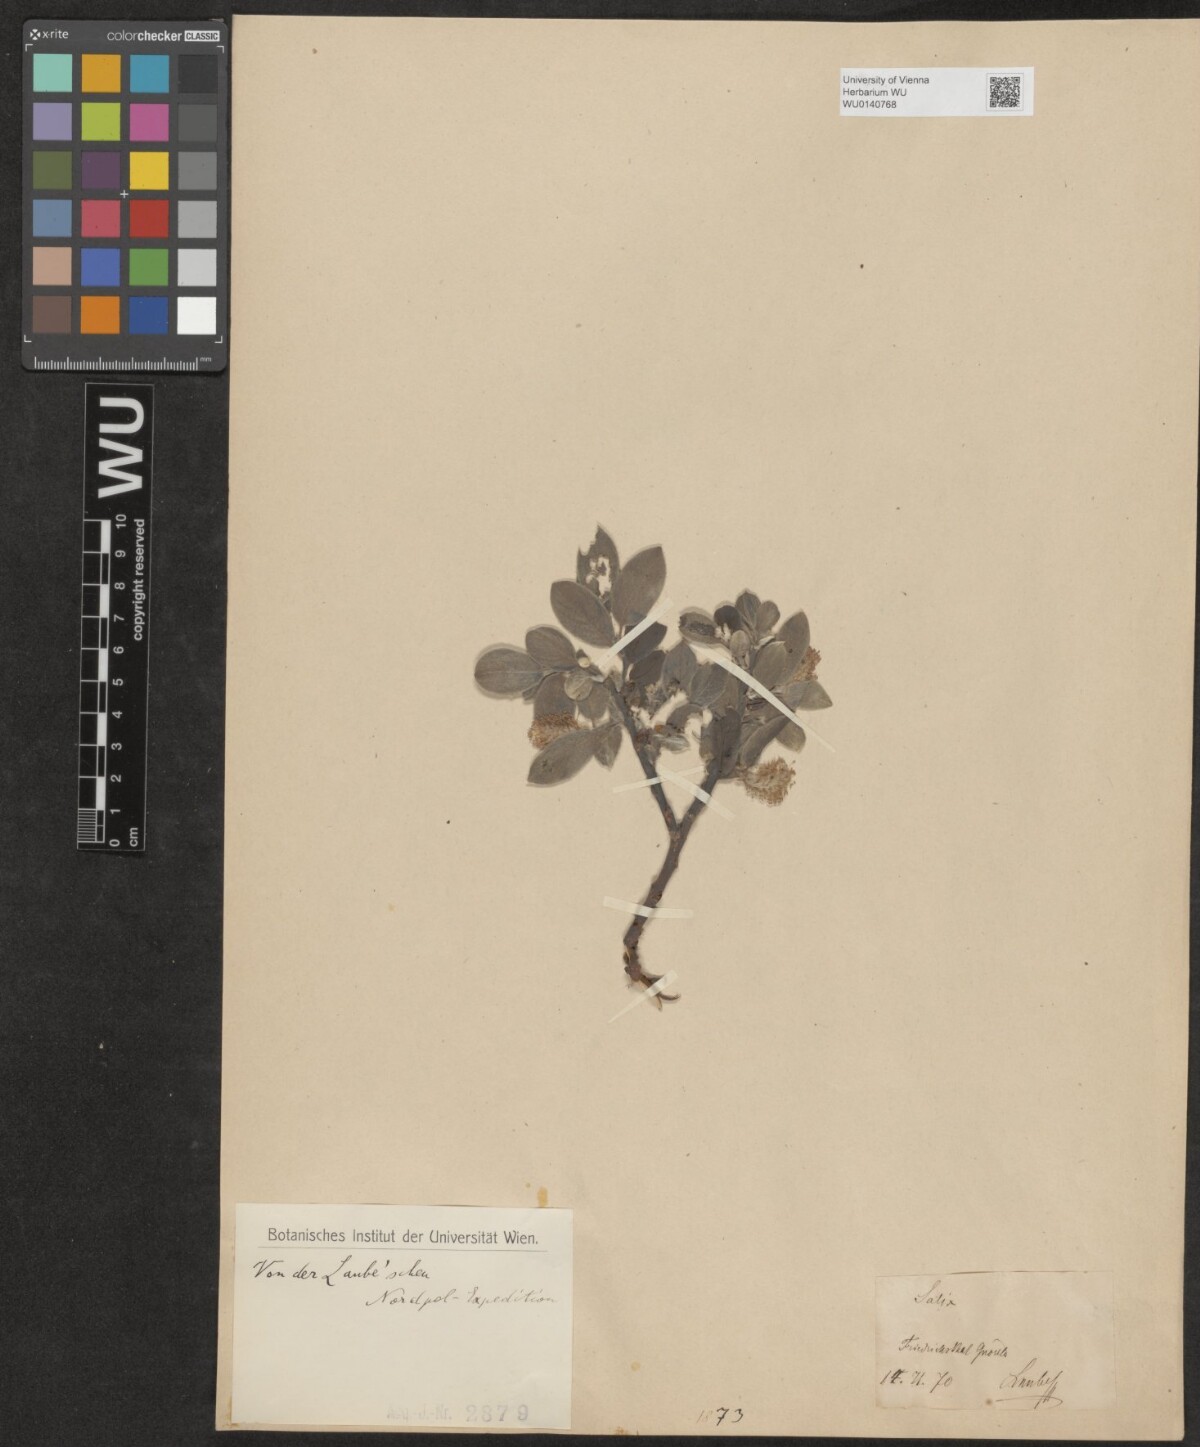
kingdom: Plantae
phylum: Tracheophyta
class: Magnoliopsida
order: Malpighiales
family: Salicaceae
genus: Salix
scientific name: Salix
